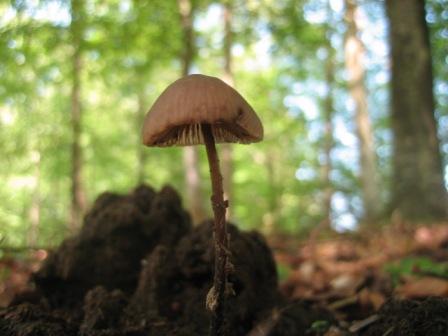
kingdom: Fungi
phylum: Basidiomycota
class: Agaricomycetes
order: Agaricales
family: Omphalotaceae
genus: Mycetinis
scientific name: Mycetinis alliaceus
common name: stor løghat
